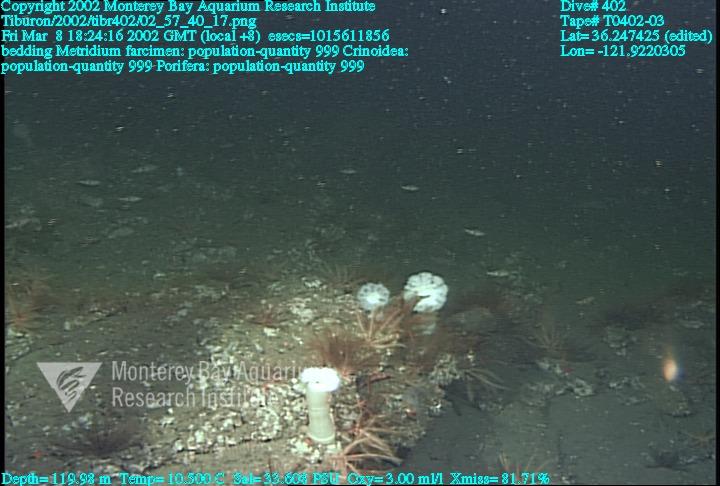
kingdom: Animalia
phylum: Porifera
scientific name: Porifera
